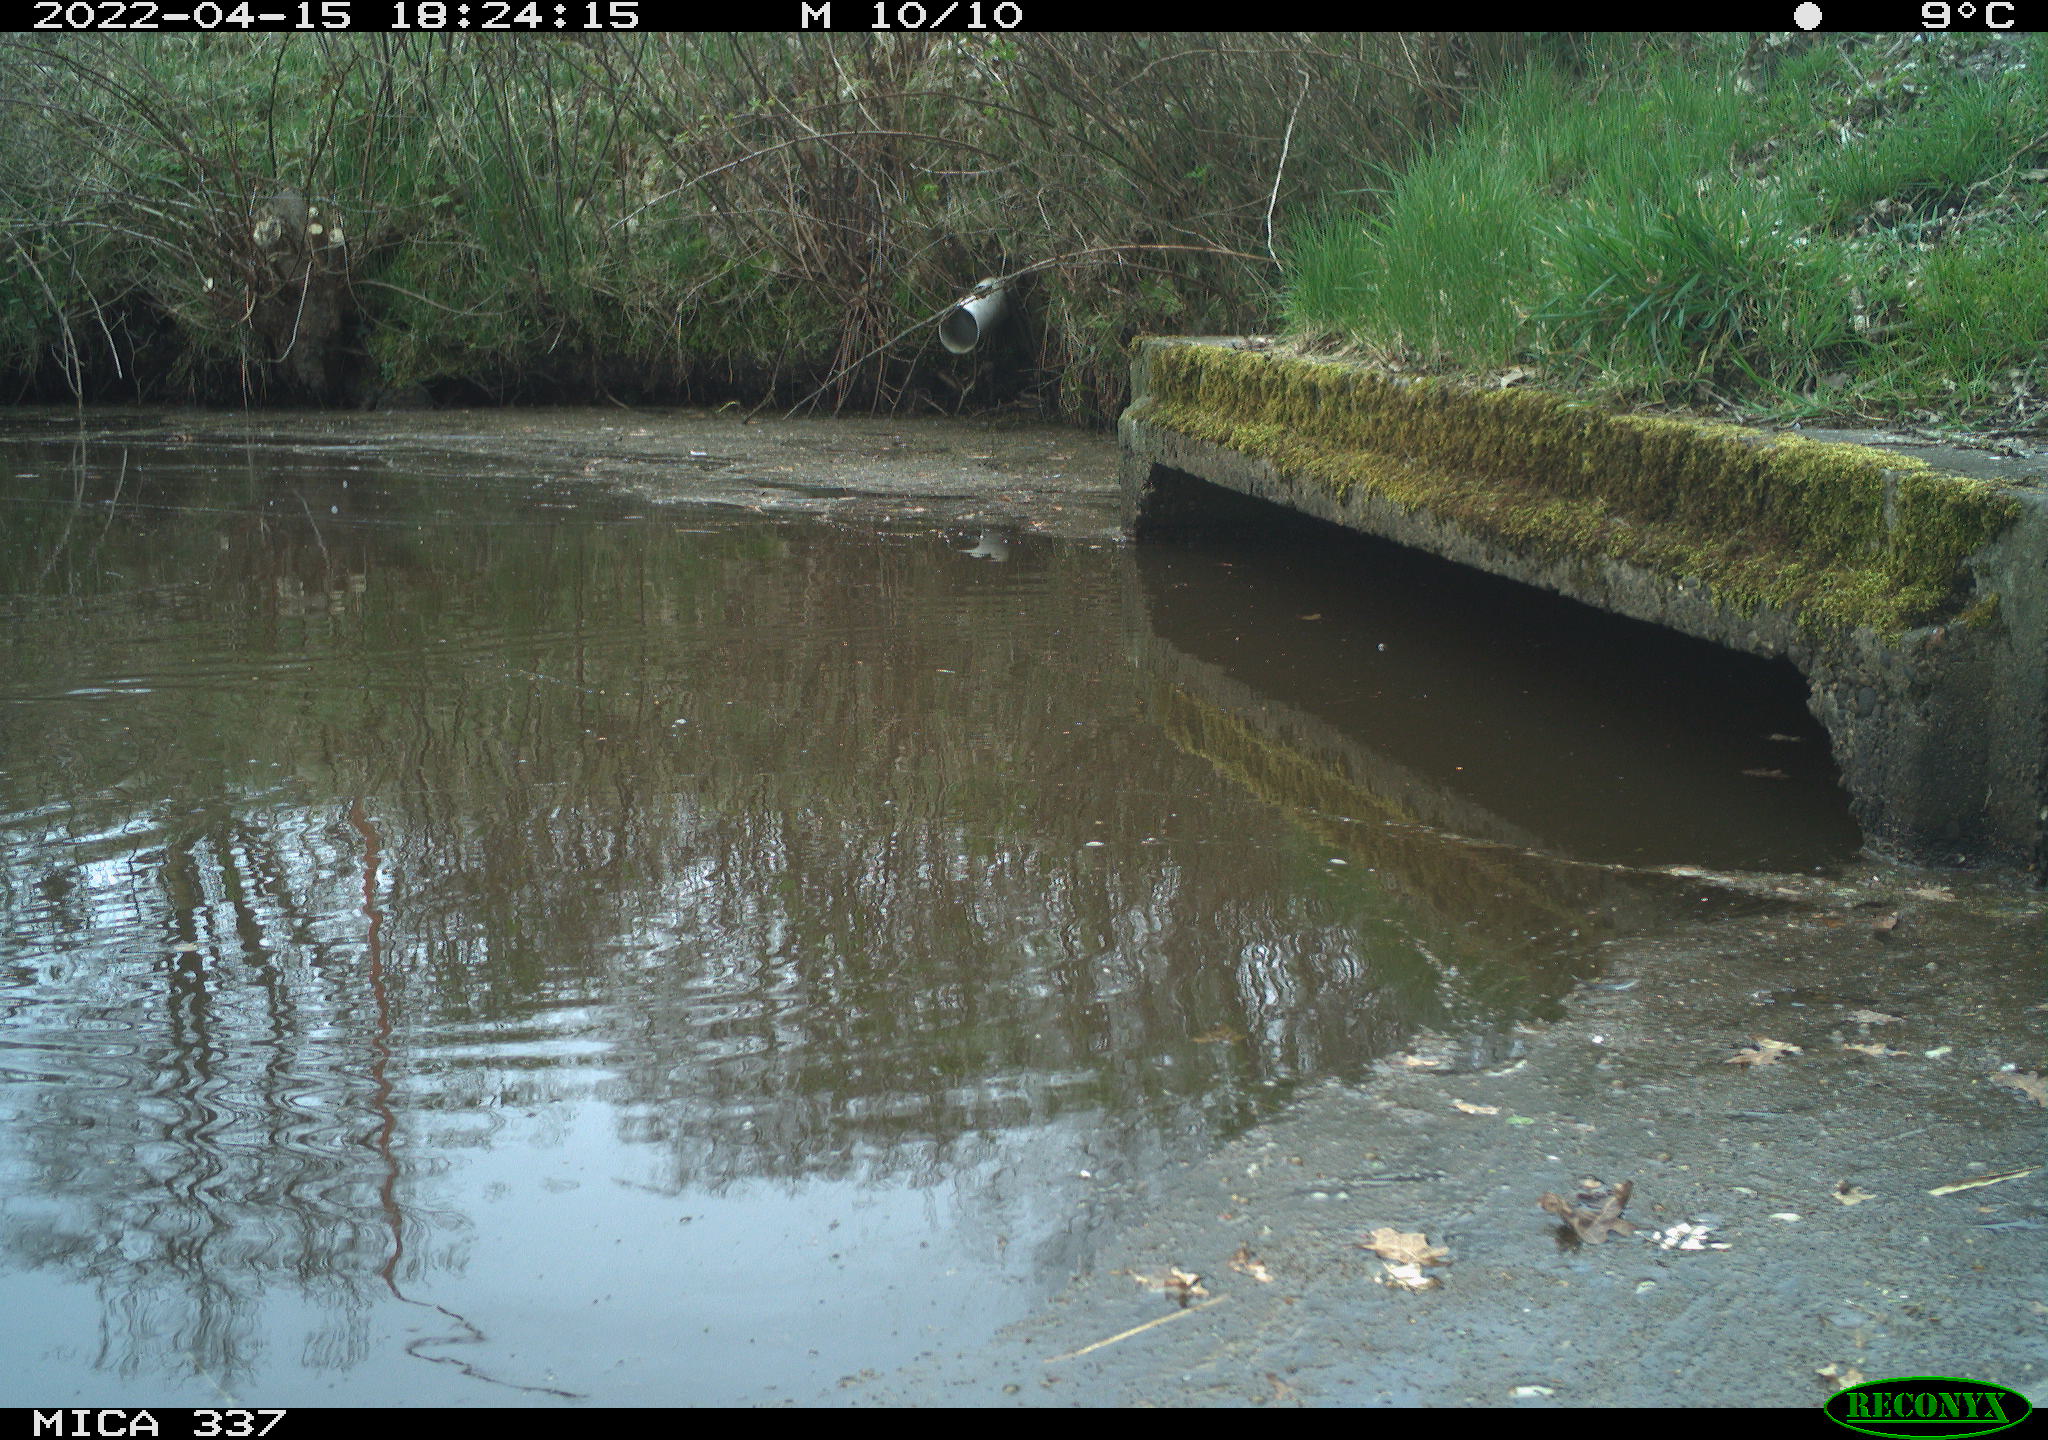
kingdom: Animalia
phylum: Chordata
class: Aves
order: Gruiformes
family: Rallidae
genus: Gallinula
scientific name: Gallinula chloropus
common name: Common moorhen
